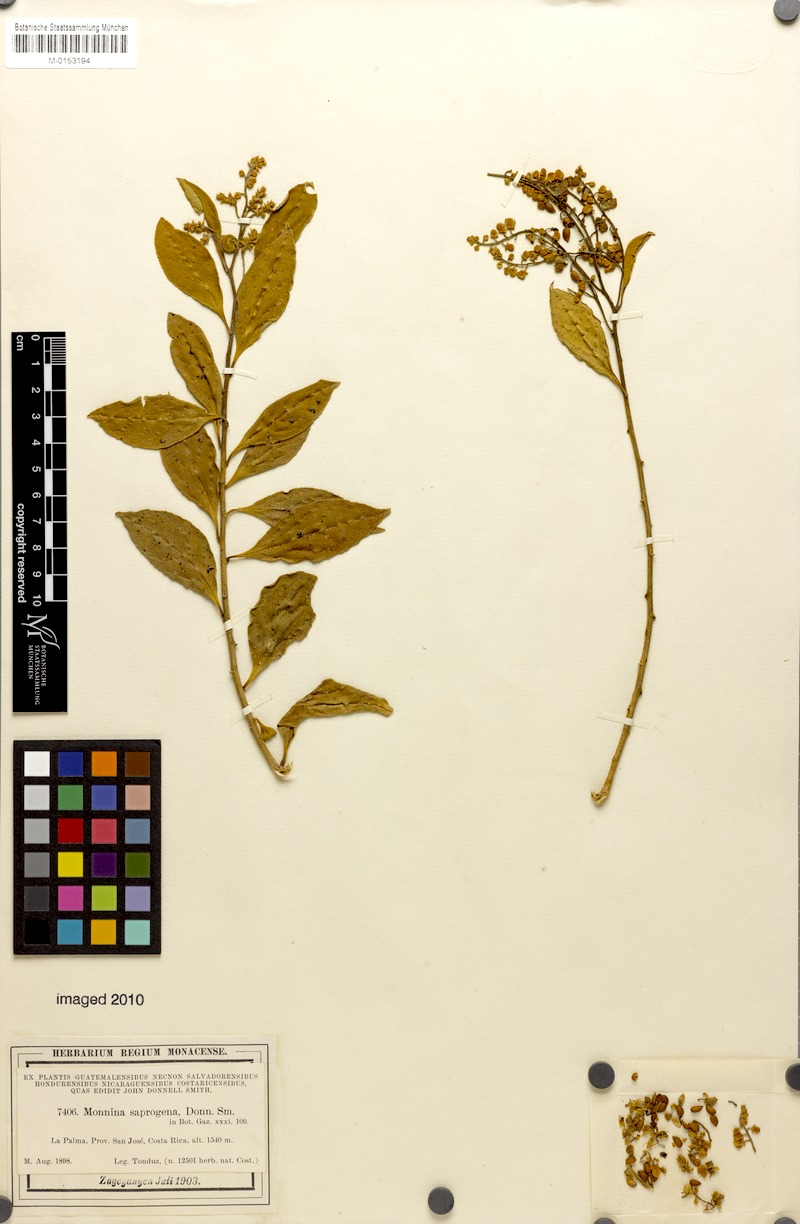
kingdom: Plantae
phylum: Tracheophyta
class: Magnoliopsida
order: Fabales
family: Polygalaceae
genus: Monnina
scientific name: Monnina saprogena
